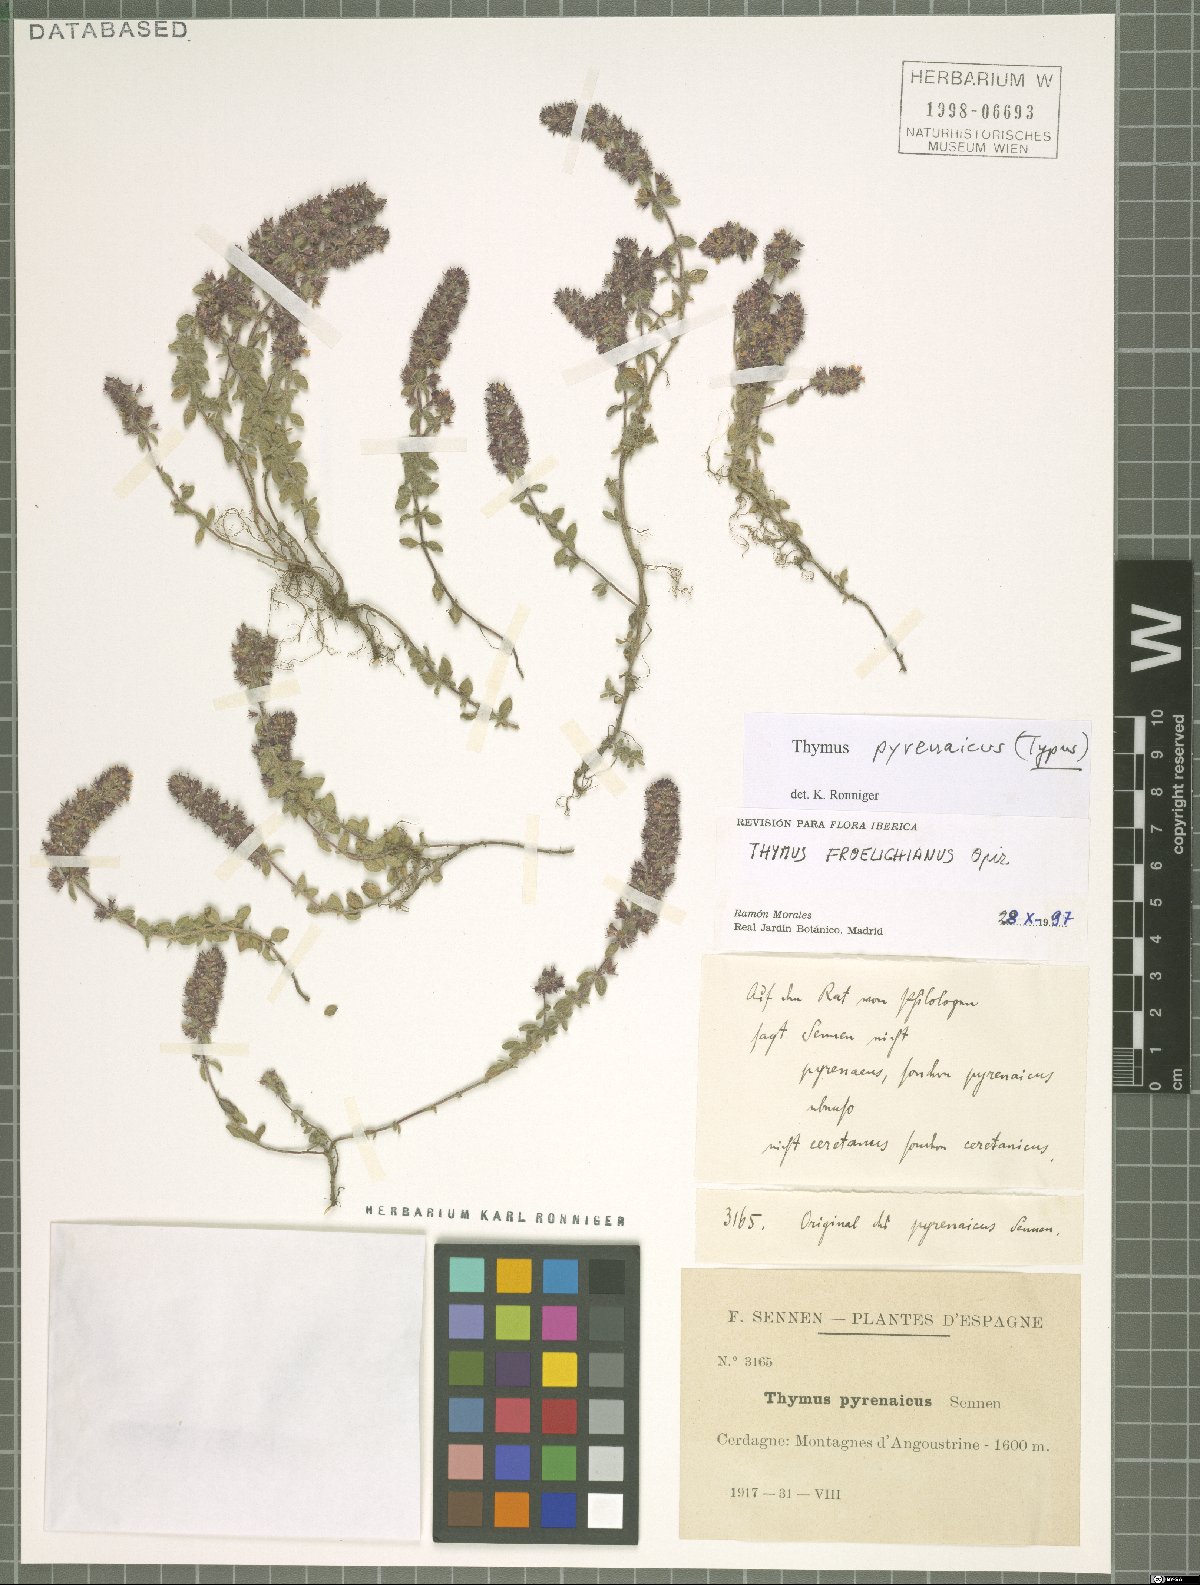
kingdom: Plantae
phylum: Tracheophyta
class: Magnoliopsida
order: Lamiales
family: Lamiaceae
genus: Thymus
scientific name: Thymus pannonicus
